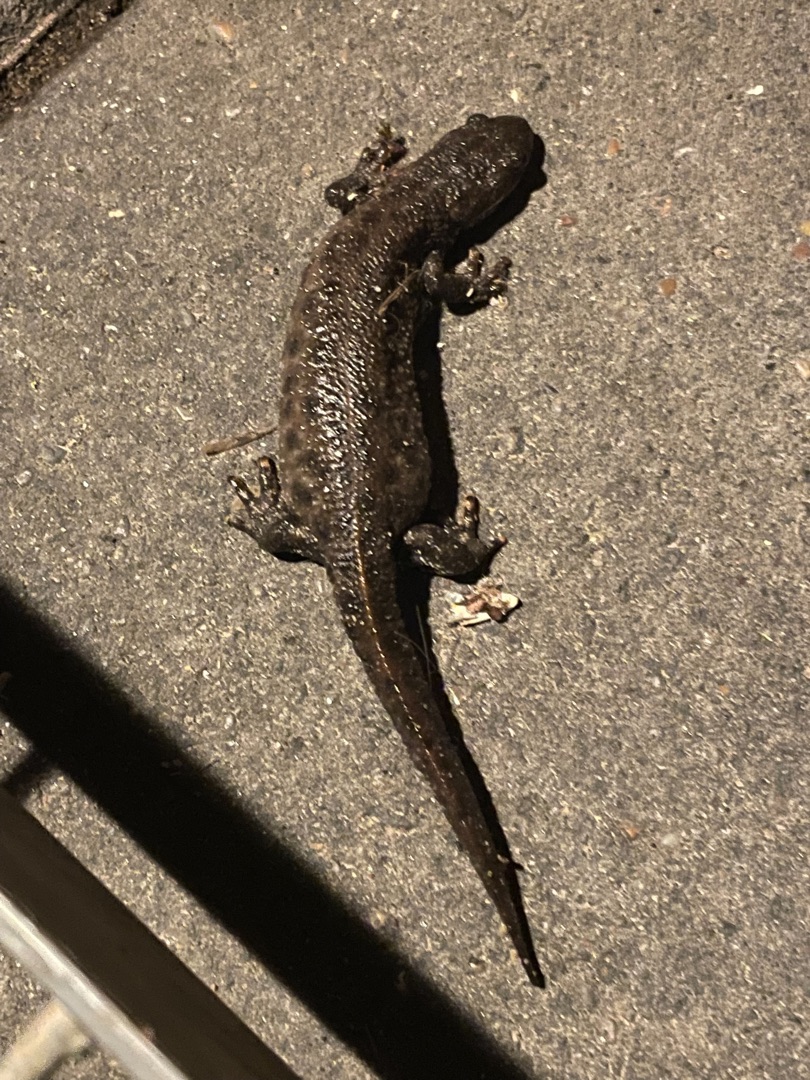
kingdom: Animalia
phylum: Chordata
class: Amphibia
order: Caudata
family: Salamandridae
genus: Triturus
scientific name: Triturus cristatus
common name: Stor vandsalamander
